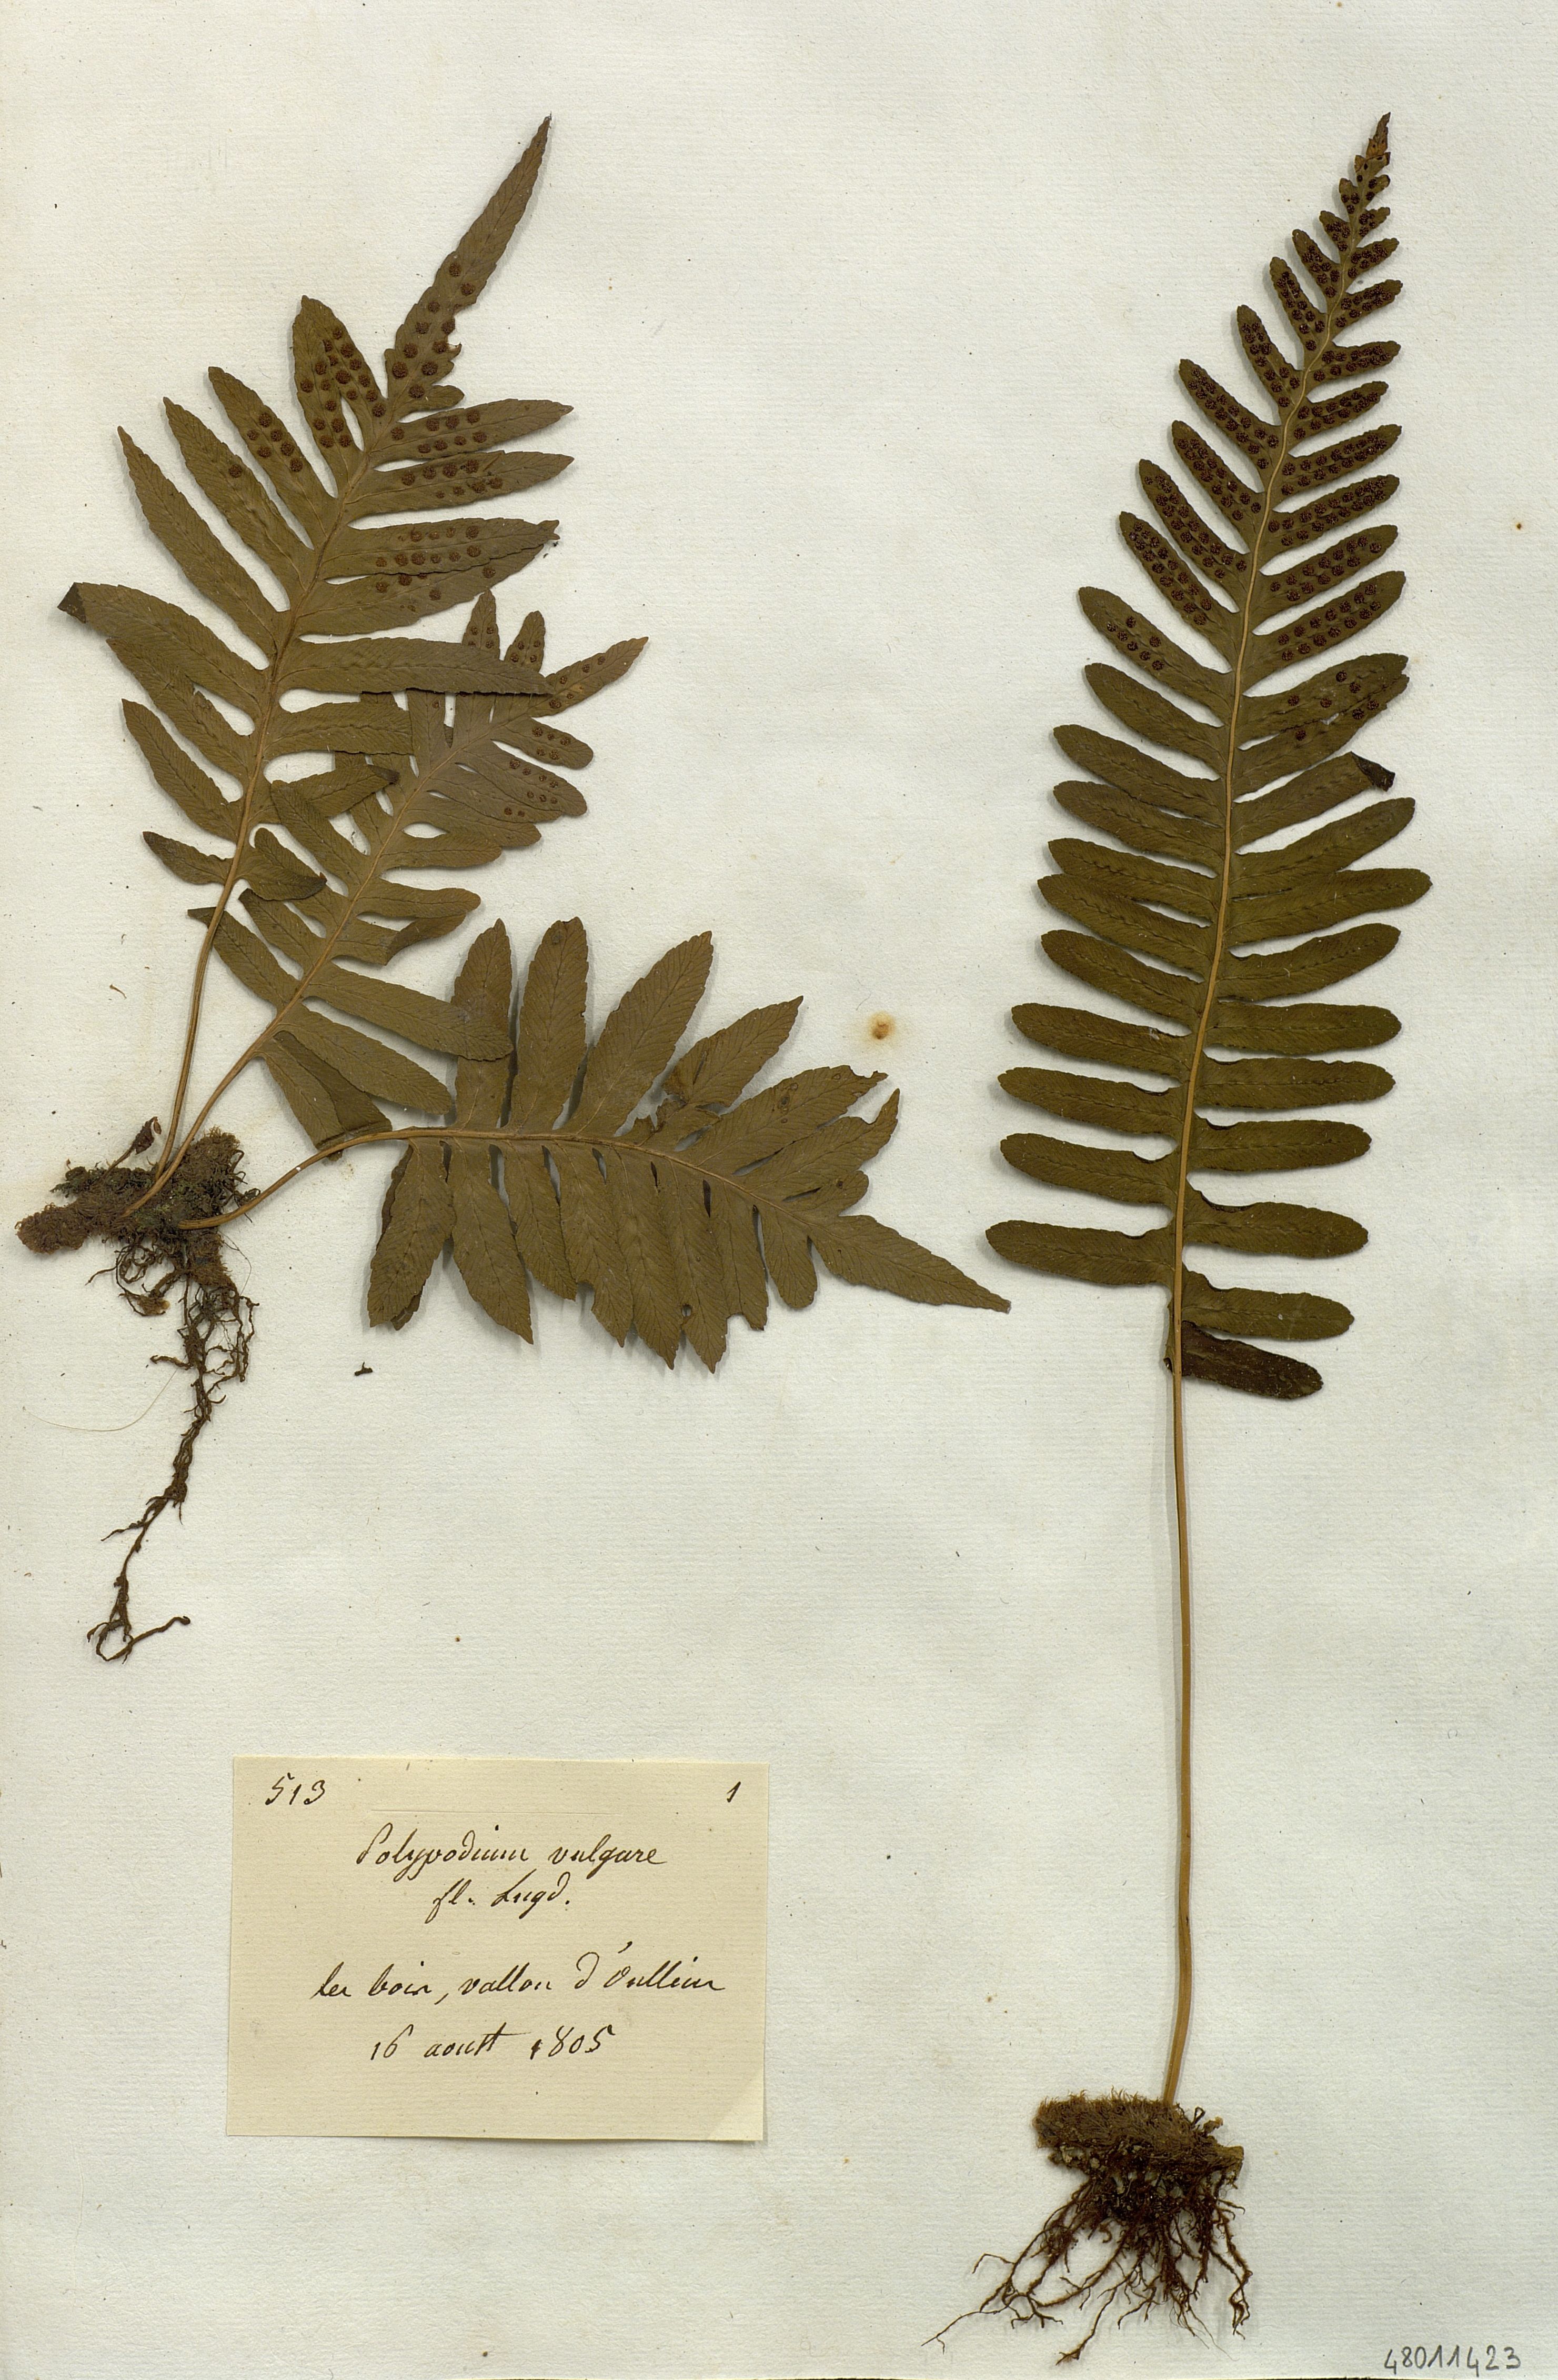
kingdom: Plantae
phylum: Tracheophyta
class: Polypodiopsida
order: Polypodiales
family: Polypodiaceae
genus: Polypodium
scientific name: Polypodium vulgare
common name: Common polypody
